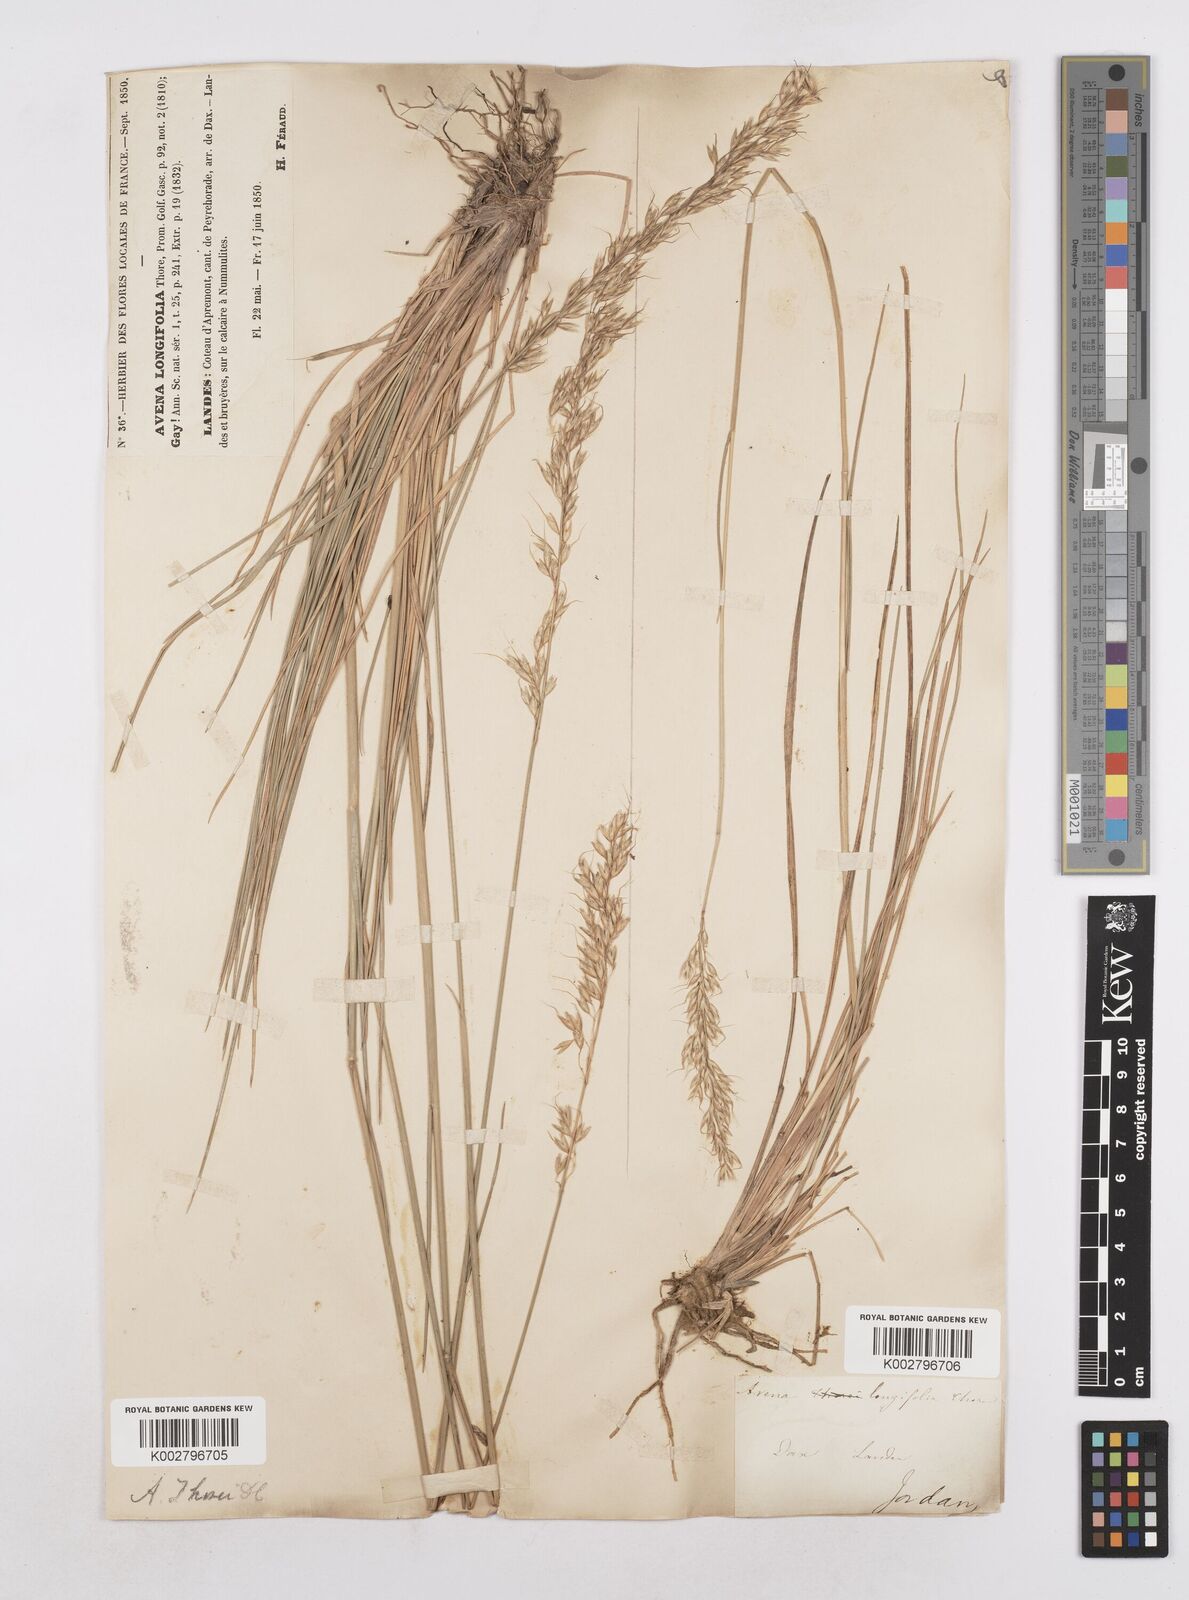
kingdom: Plantae
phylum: Tracheophyta
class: Liliopsida
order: Poales
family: Poaceae
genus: Arrhenatherum
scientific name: Arrhenatherum longifolium
